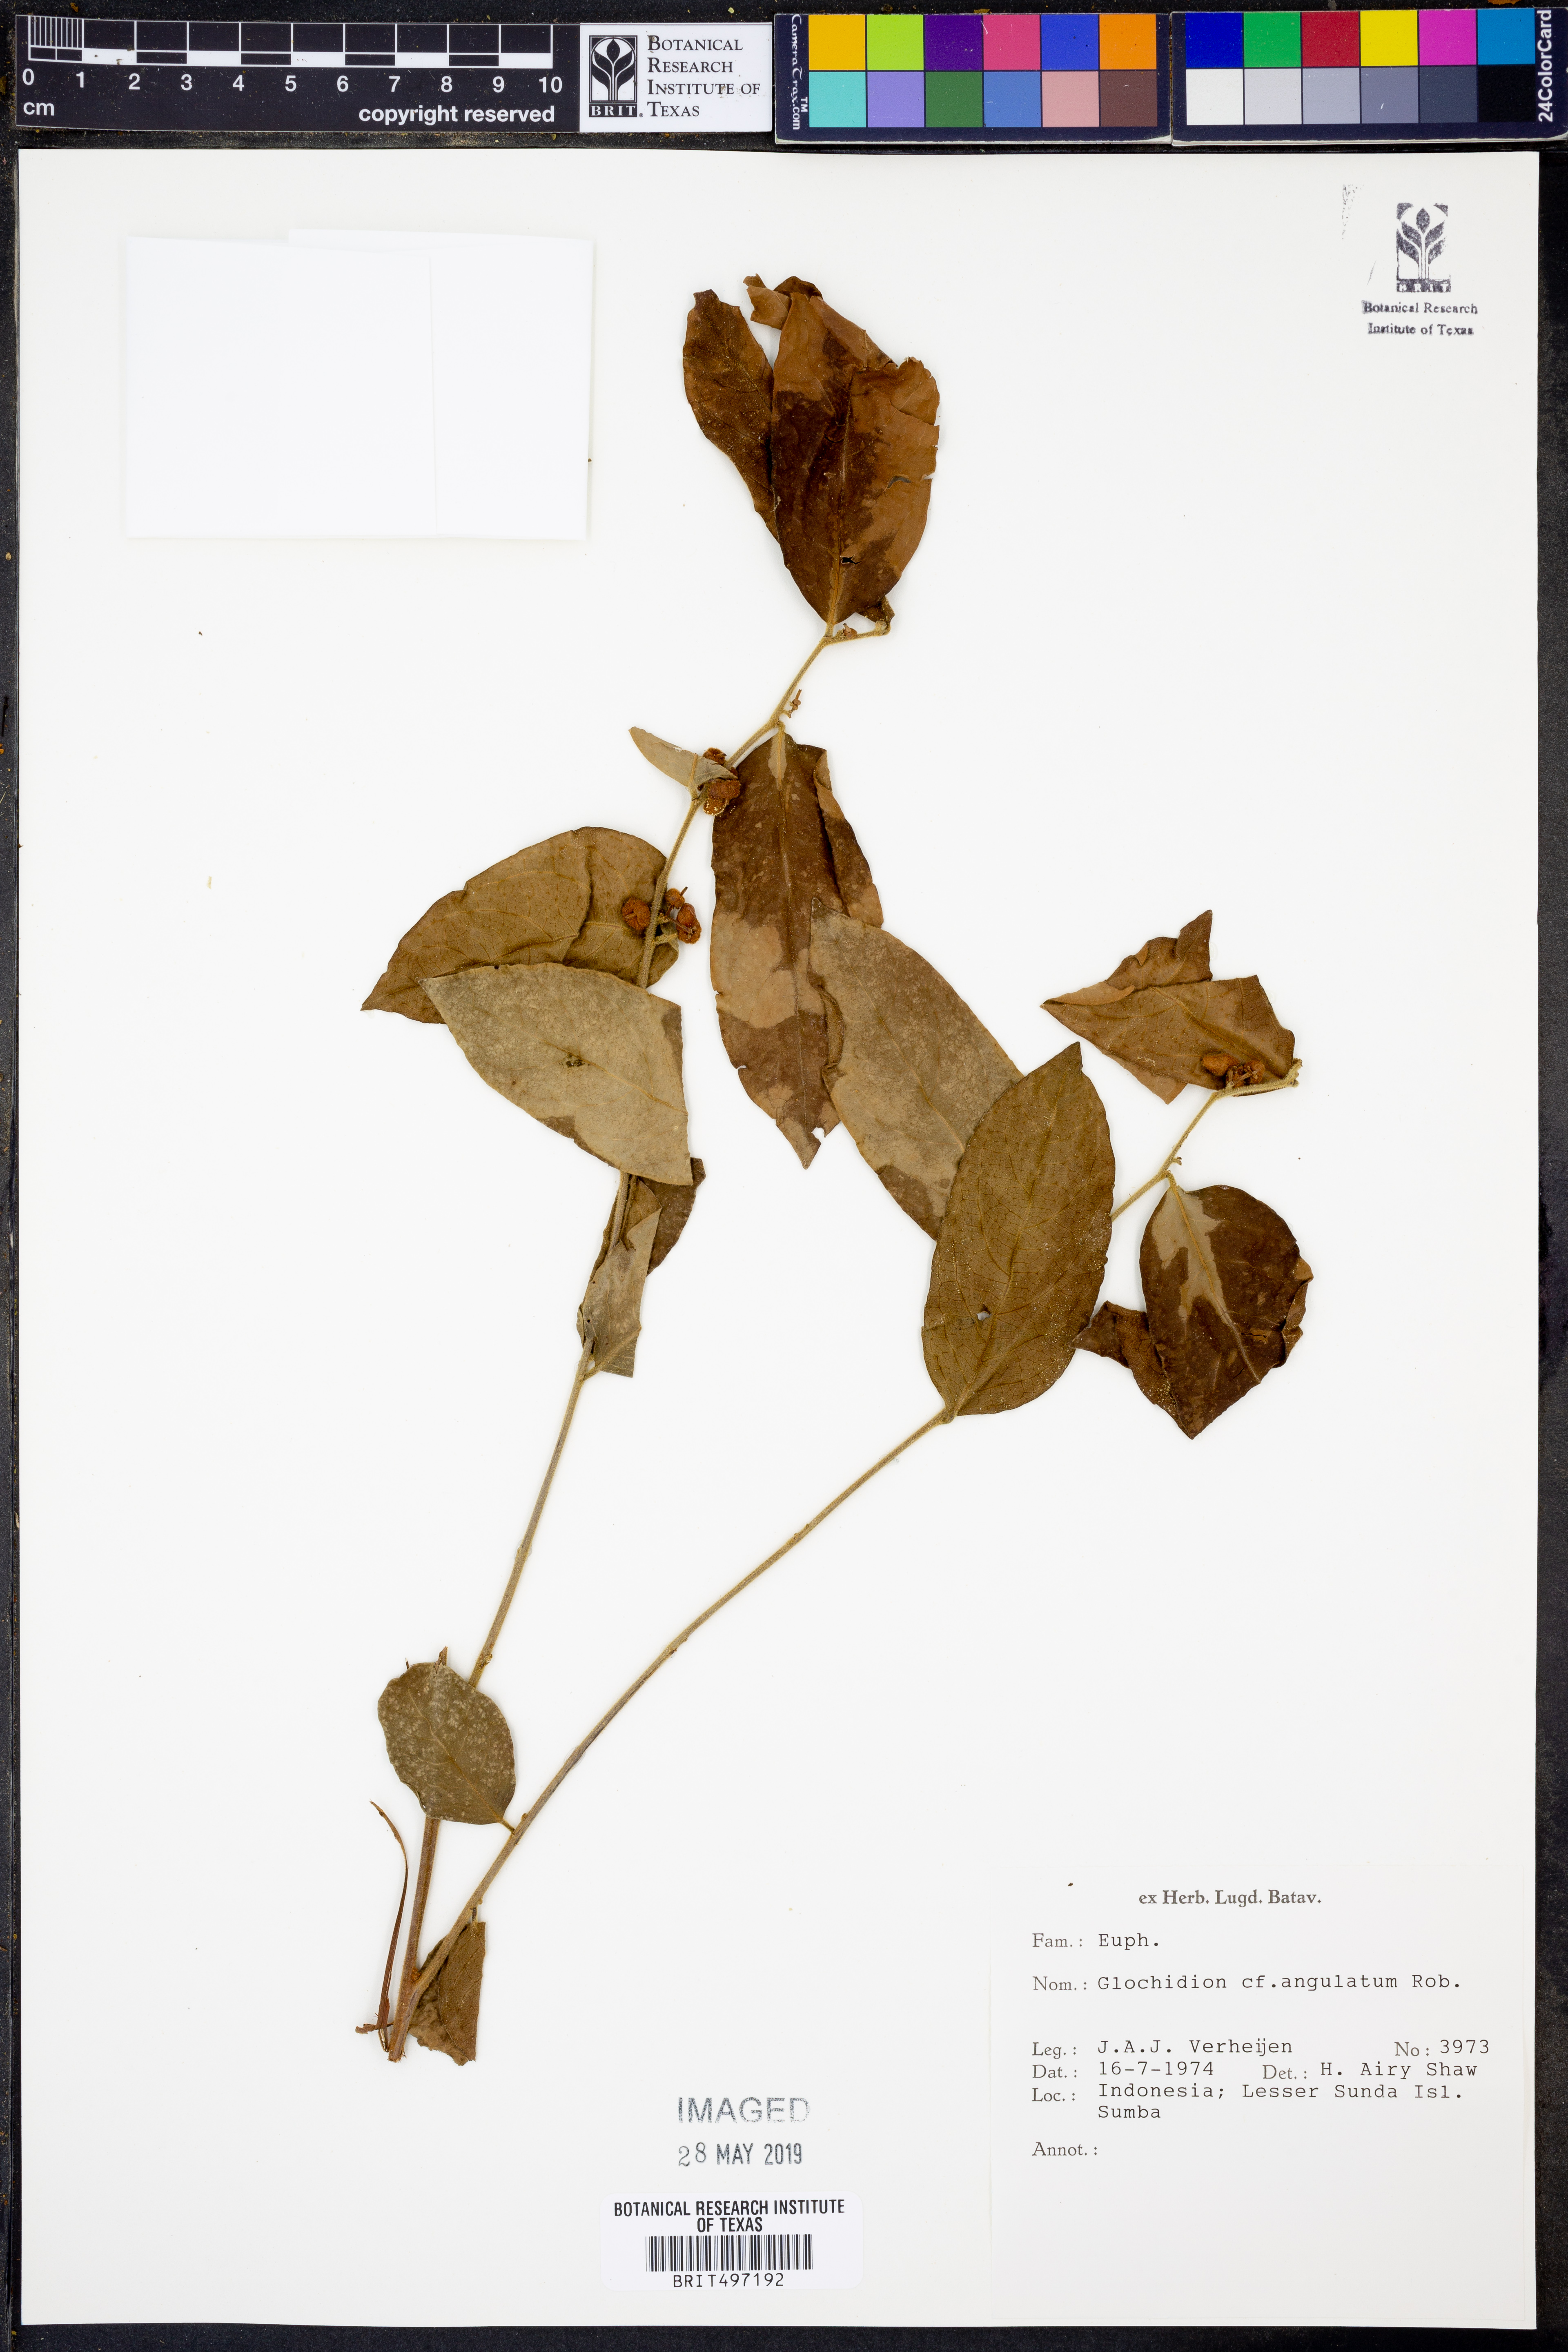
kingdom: Plantae
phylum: Tracheophyta
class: Magnoliopsida
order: Malpighiales
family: Phyllanthaceae
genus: Glochidion
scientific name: Glochidion angulatum
